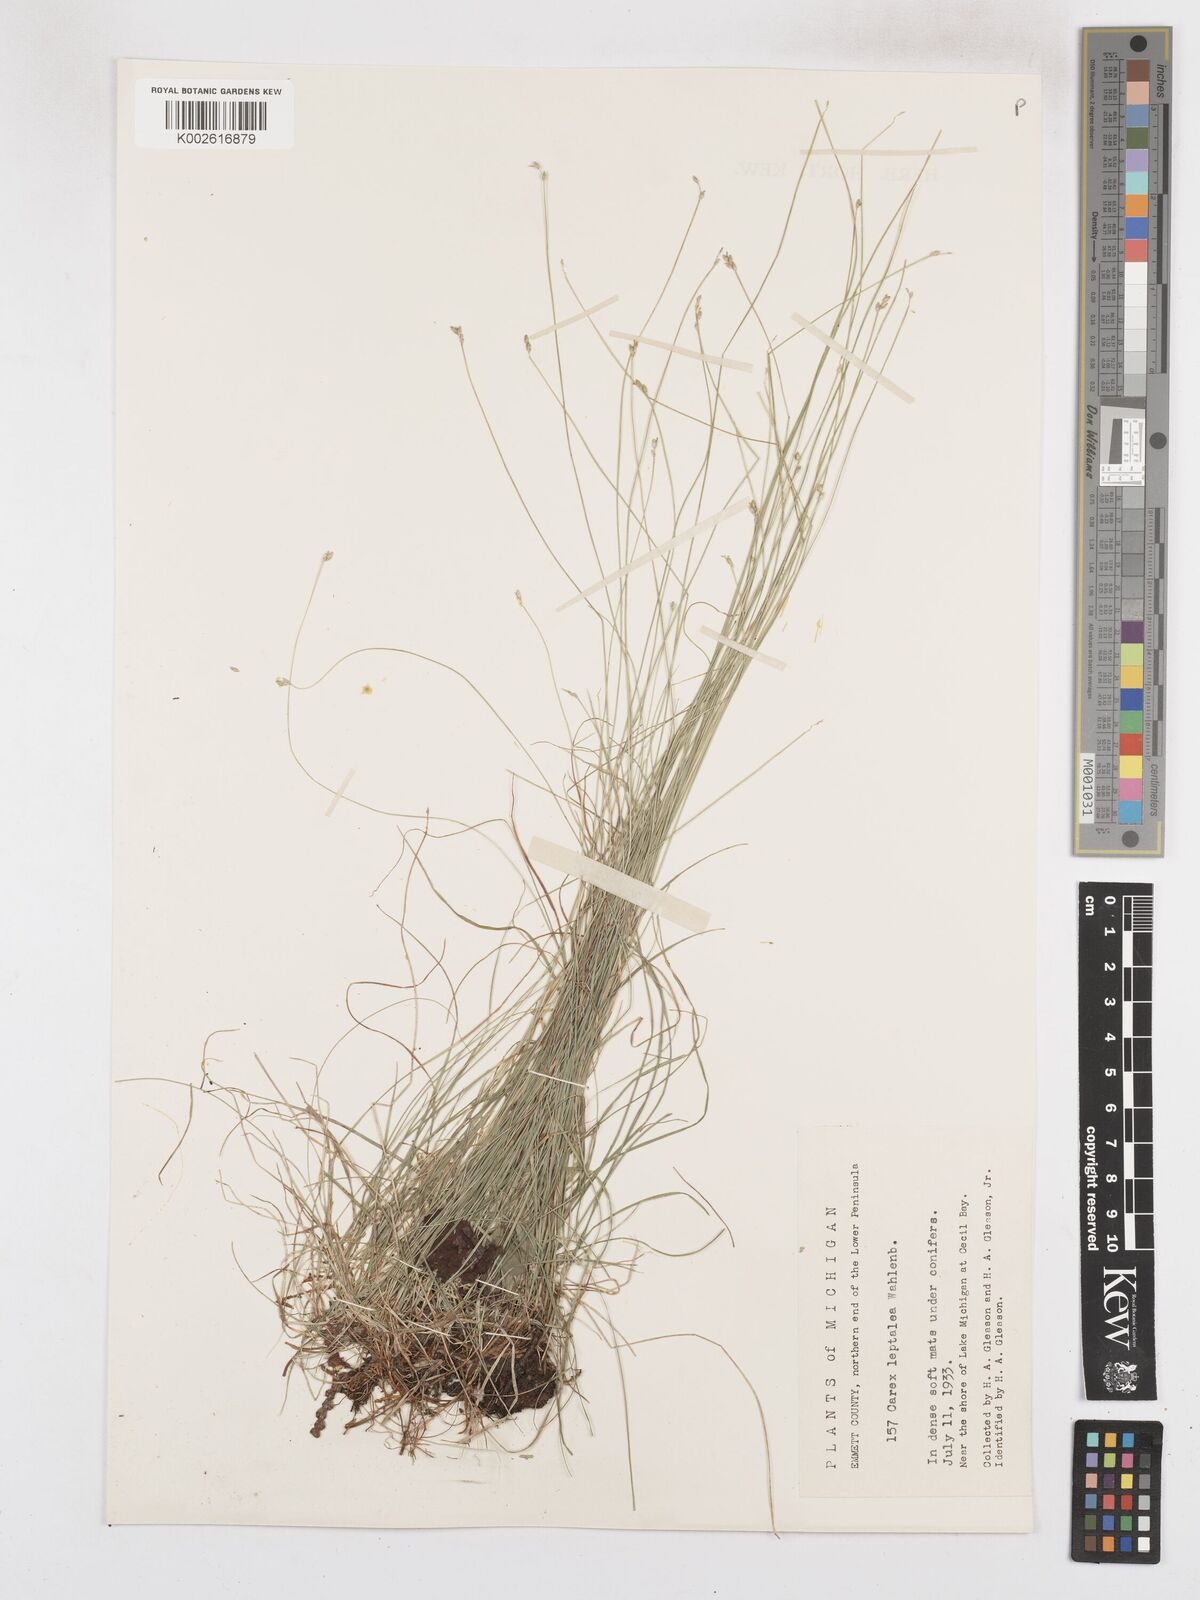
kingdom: Plantae
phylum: Tracheophyta
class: Liliopsida
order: Poales
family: Cyperaceae
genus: Carex
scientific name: Carex leptalea
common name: Bristly-stalked sedge
